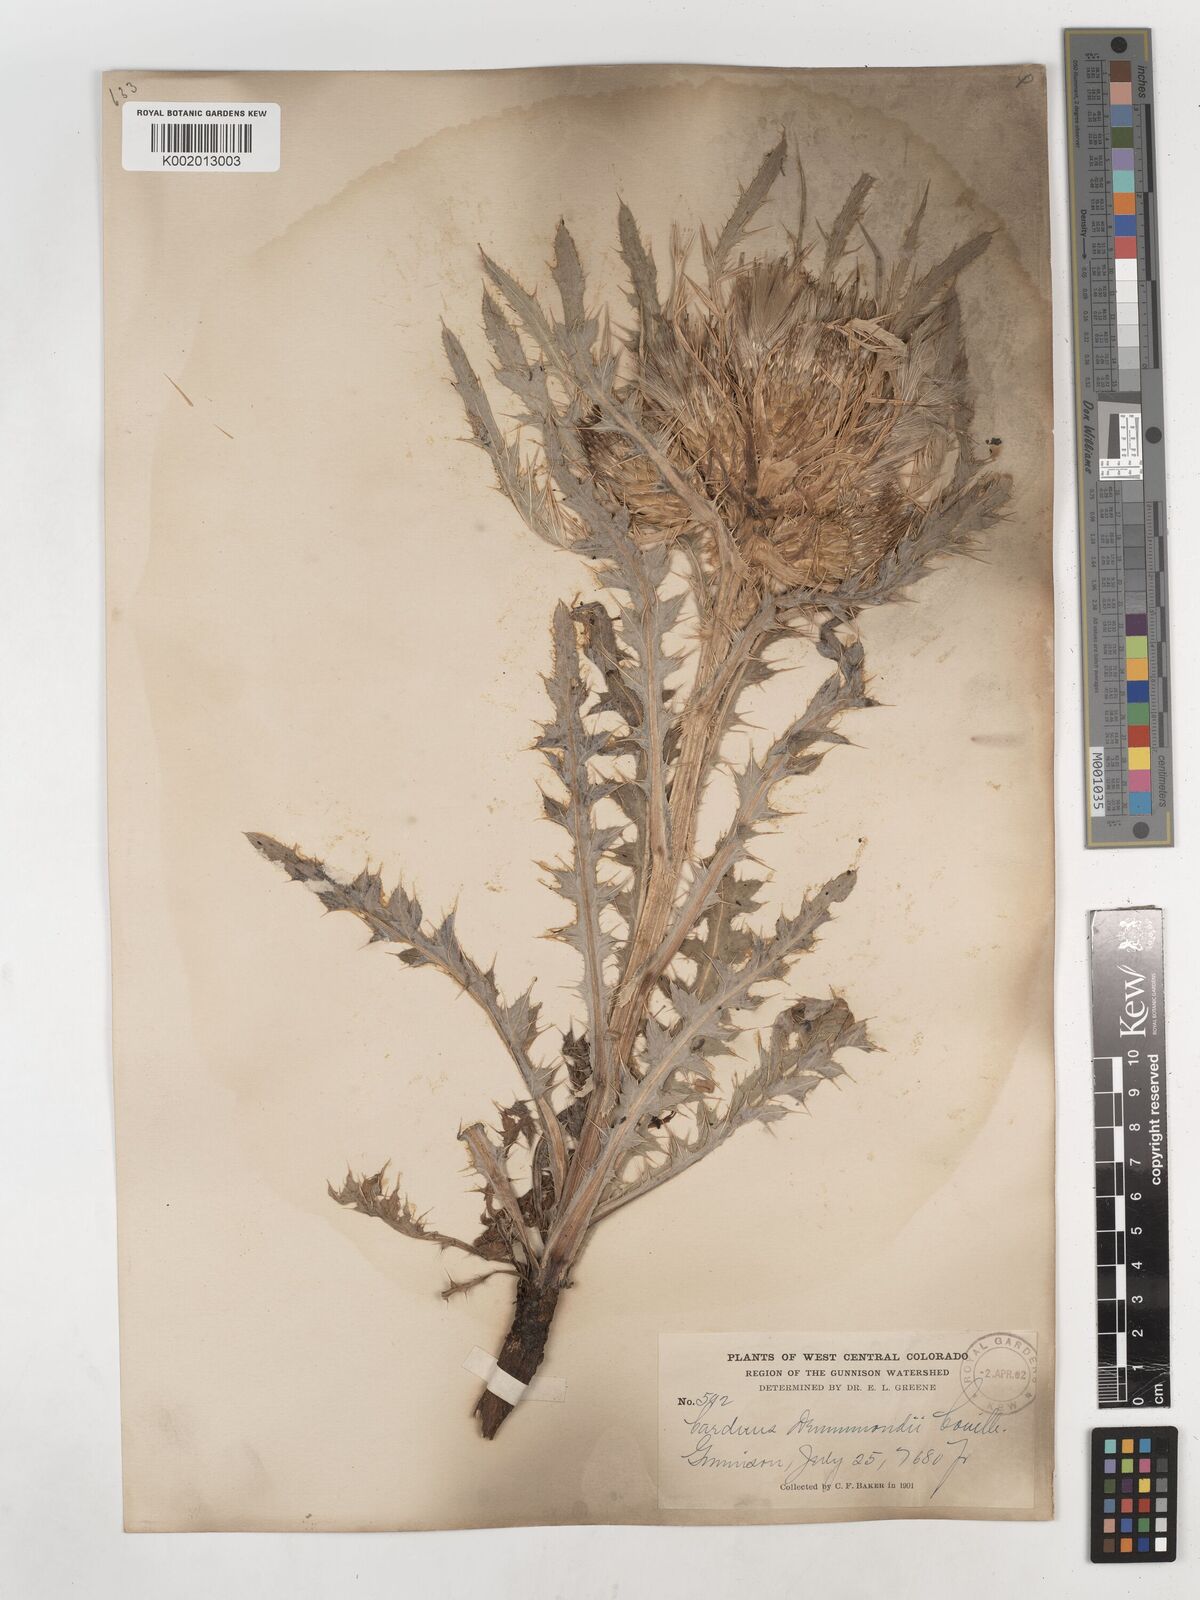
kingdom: Plantae
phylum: Tracheophyta
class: Magnoliopsida
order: Asterales
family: Asteraceae
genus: Cirsium
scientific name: Cirsium drummondii
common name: Drummond's thistle
